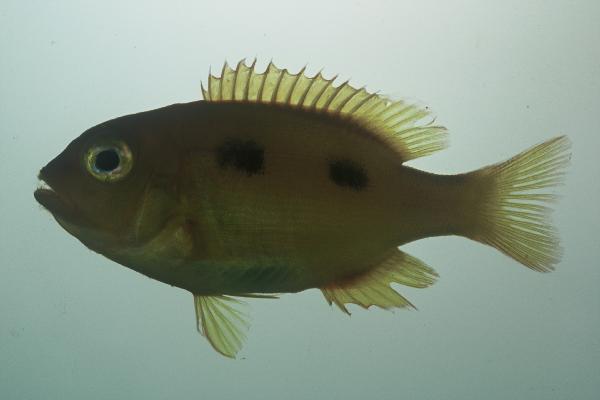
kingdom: Animalia
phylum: Chordata
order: Perciformes
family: Sparidae
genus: Porcostoma
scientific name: Porcostoma dentata
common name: Dane
